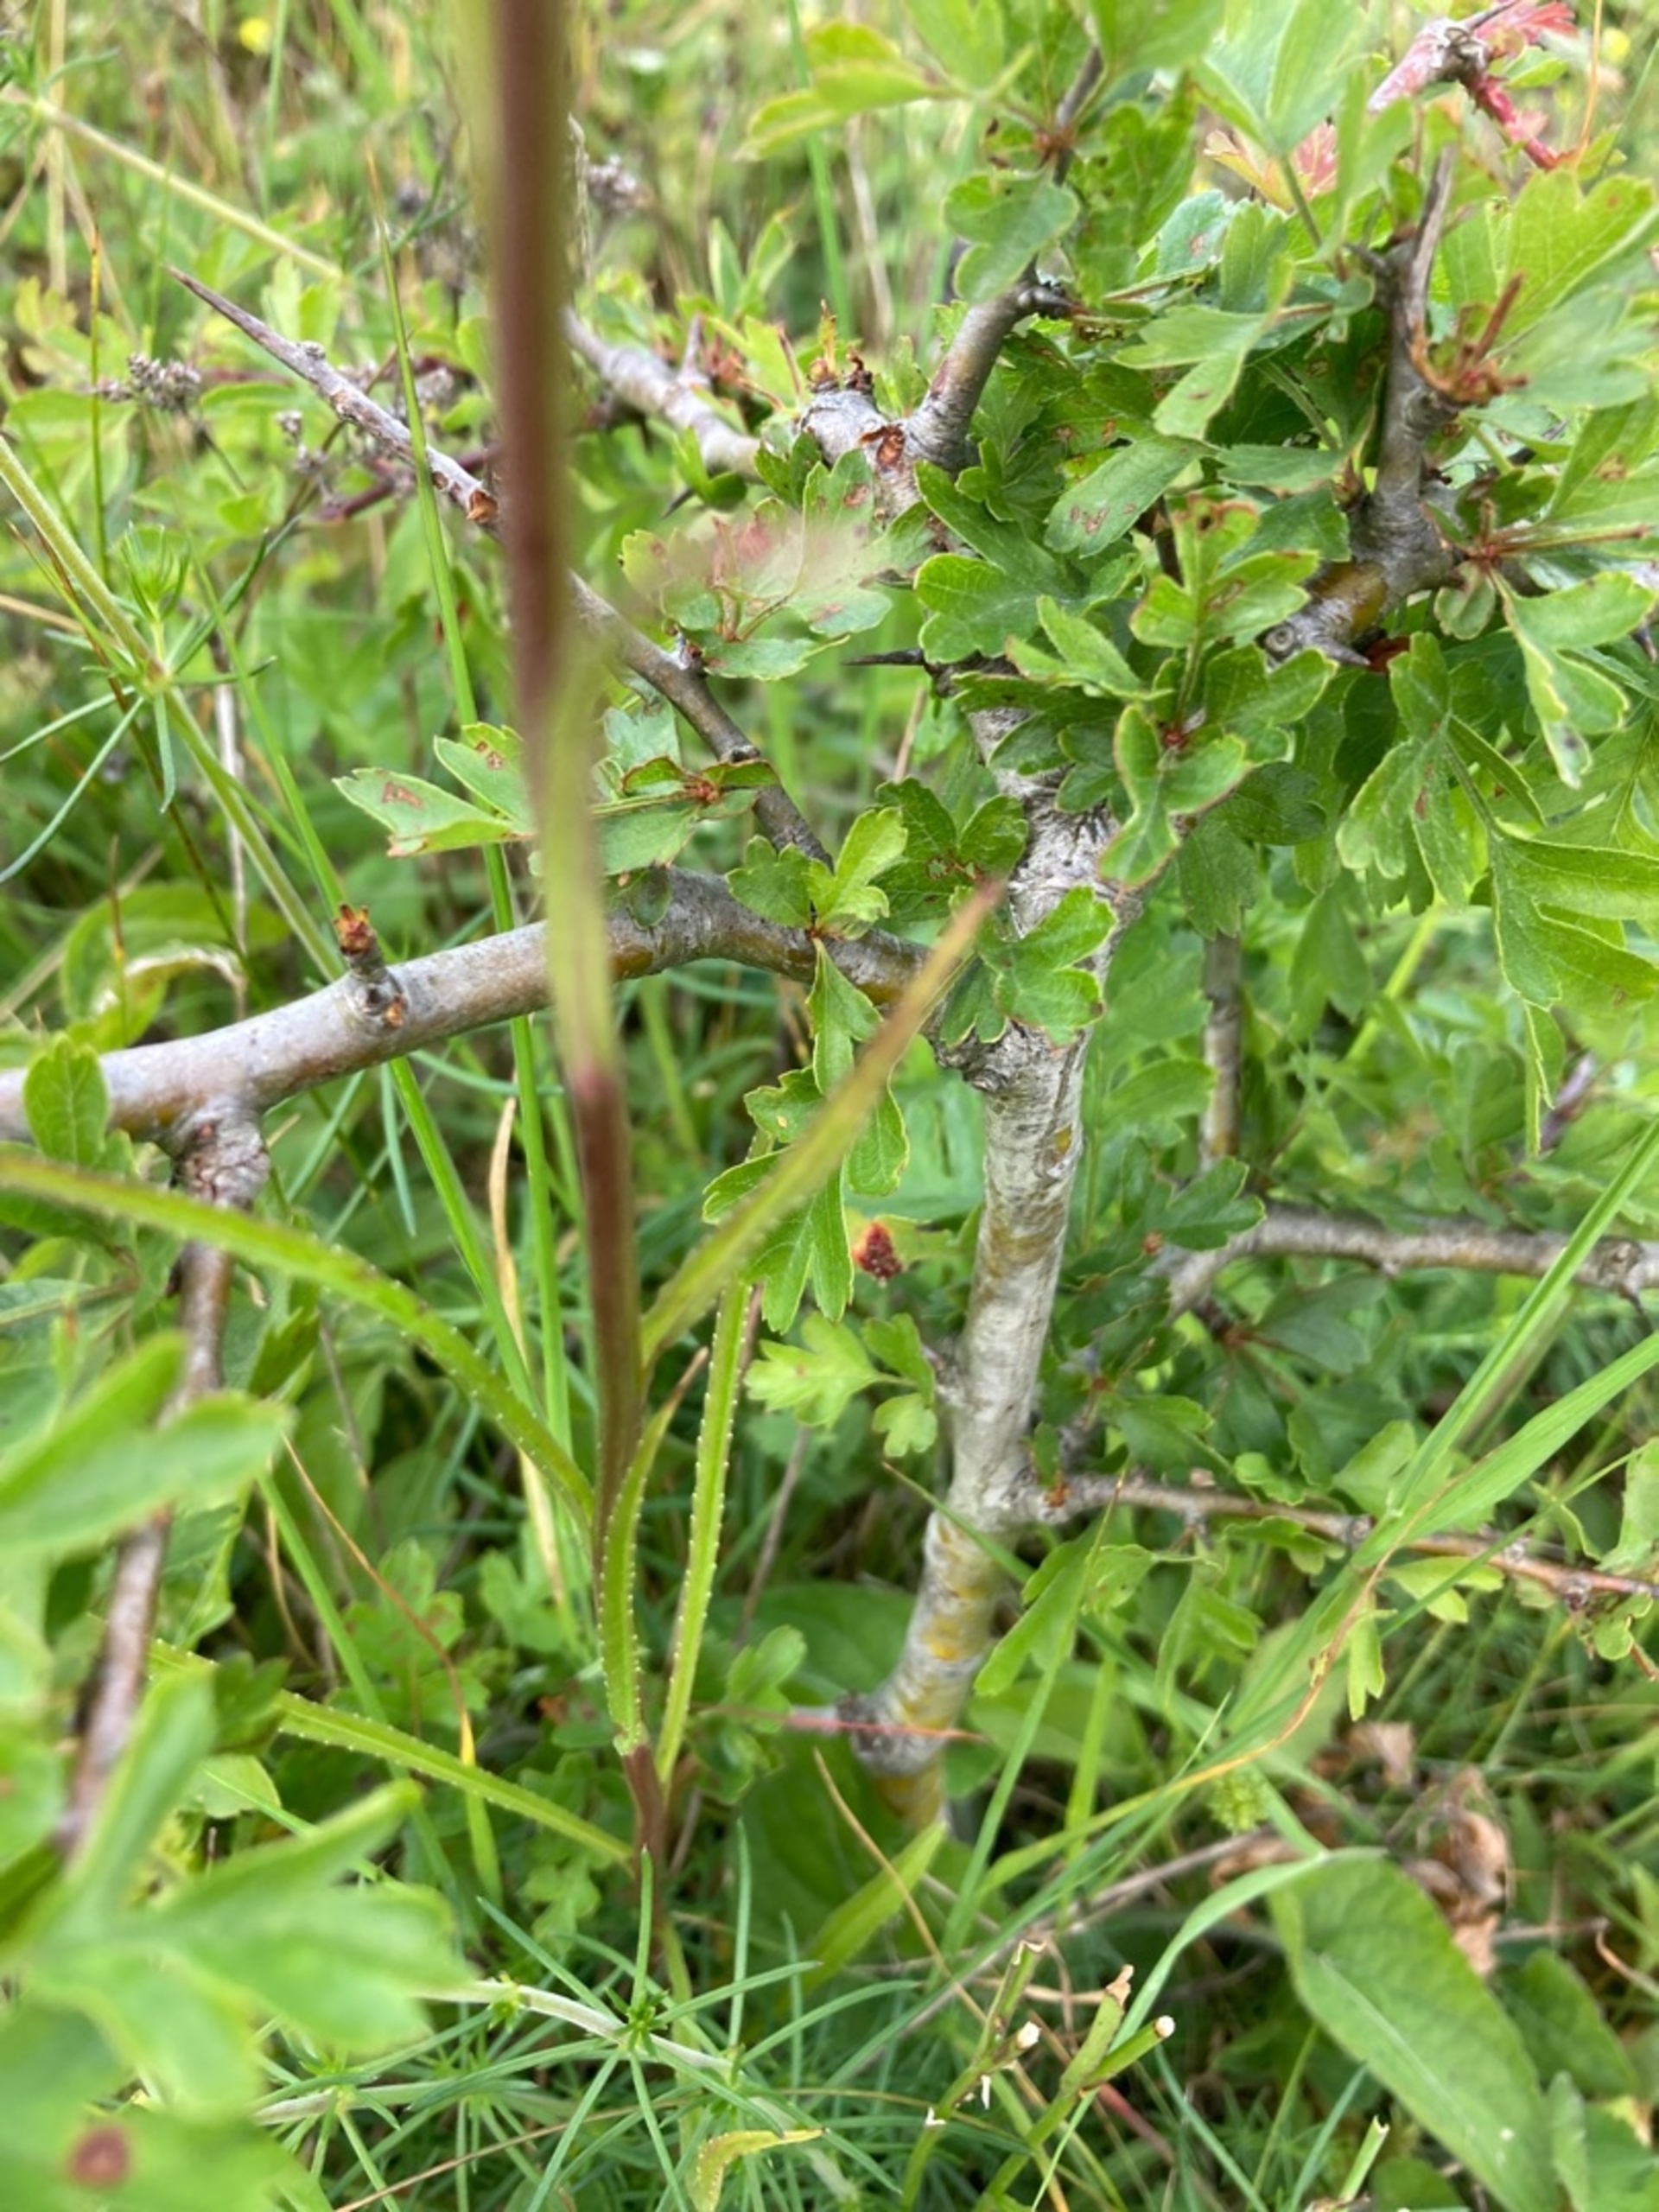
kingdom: Plantae
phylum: Tracheophyta
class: Magnoliopsida
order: Asterales
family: Campanulaceae
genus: Campanula
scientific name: Campanula persicifolia
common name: Smalbladet klokke
